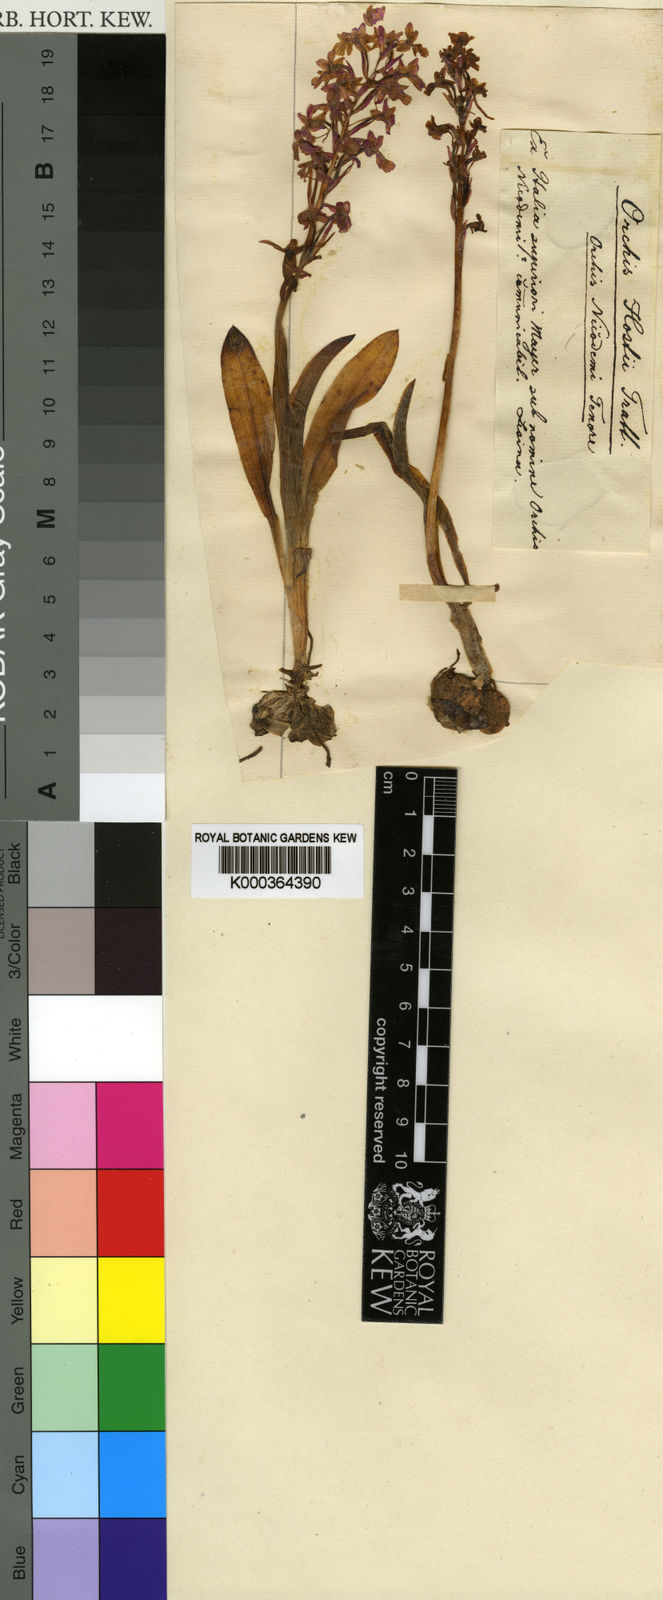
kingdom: Plantae
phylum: Tracheophyta
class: Liliopsida
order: Asparagales
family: Orchidaceae
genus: Orchis
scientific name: Orchis quadripunctata
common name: Four-spotted orchid
